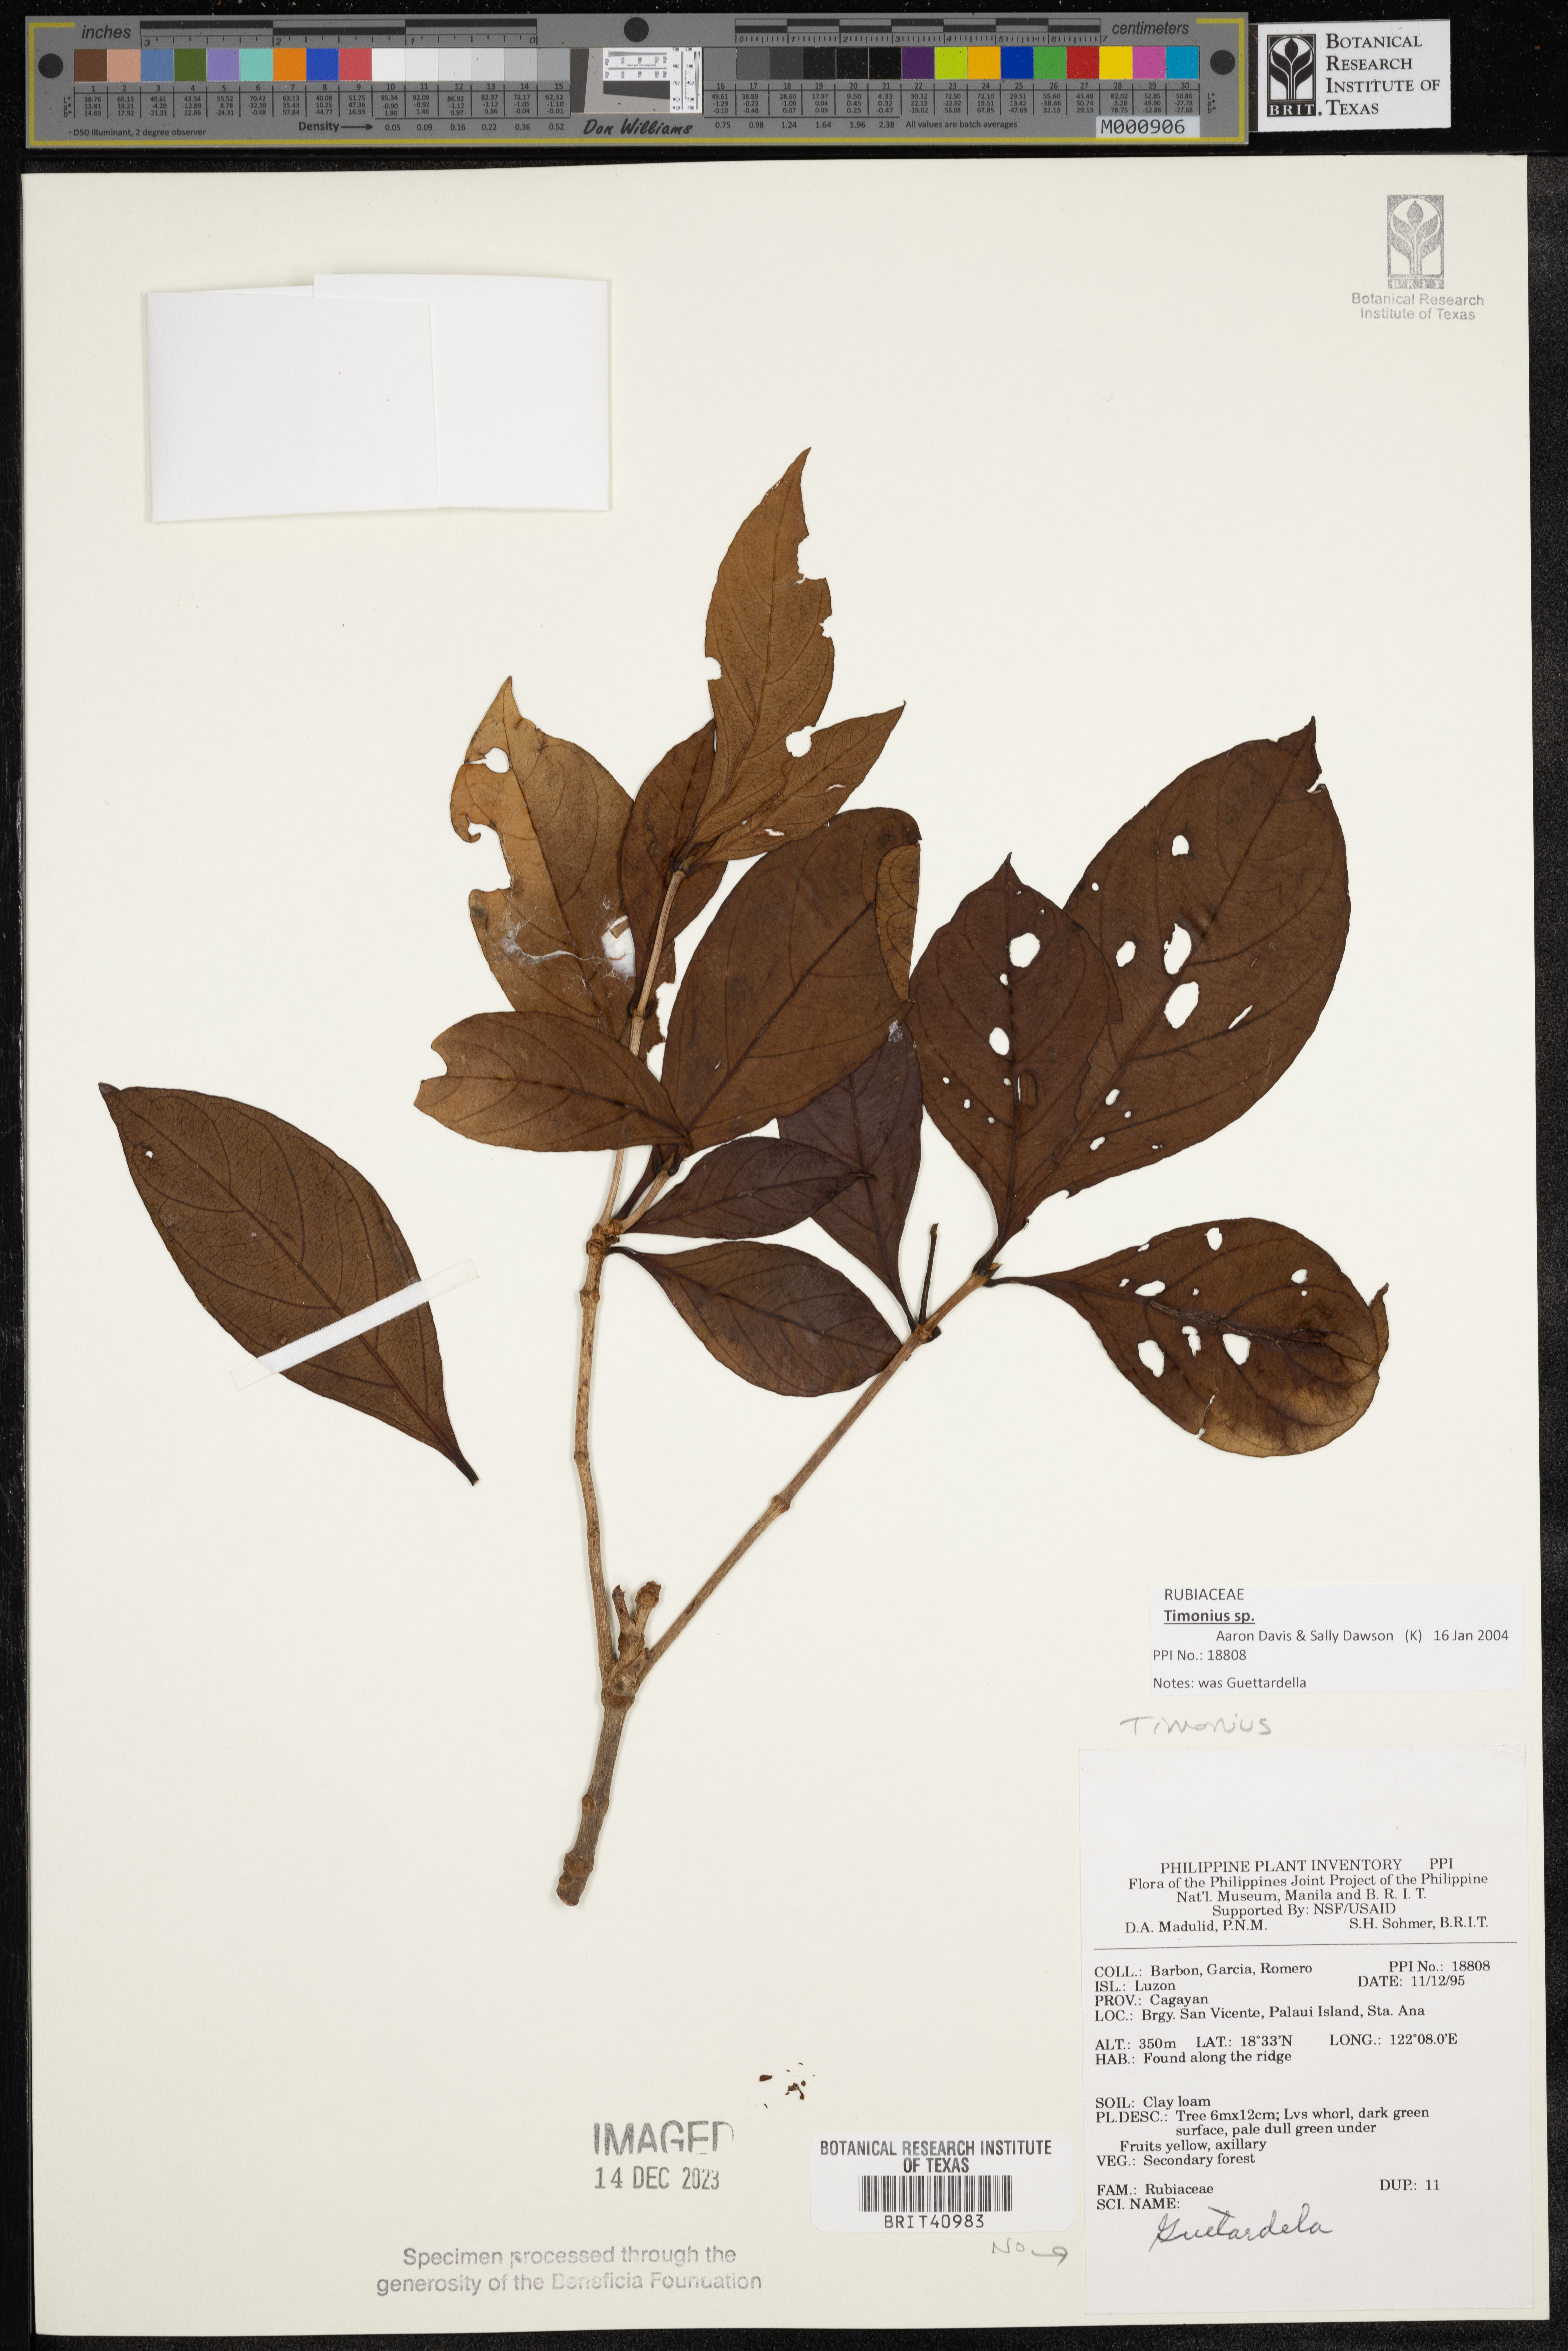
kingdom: Plantae
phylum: Tracheophyta
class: Magnoliopsida
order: Gentianales
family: Rubiaceae
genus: Timonius
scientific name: Timonius
